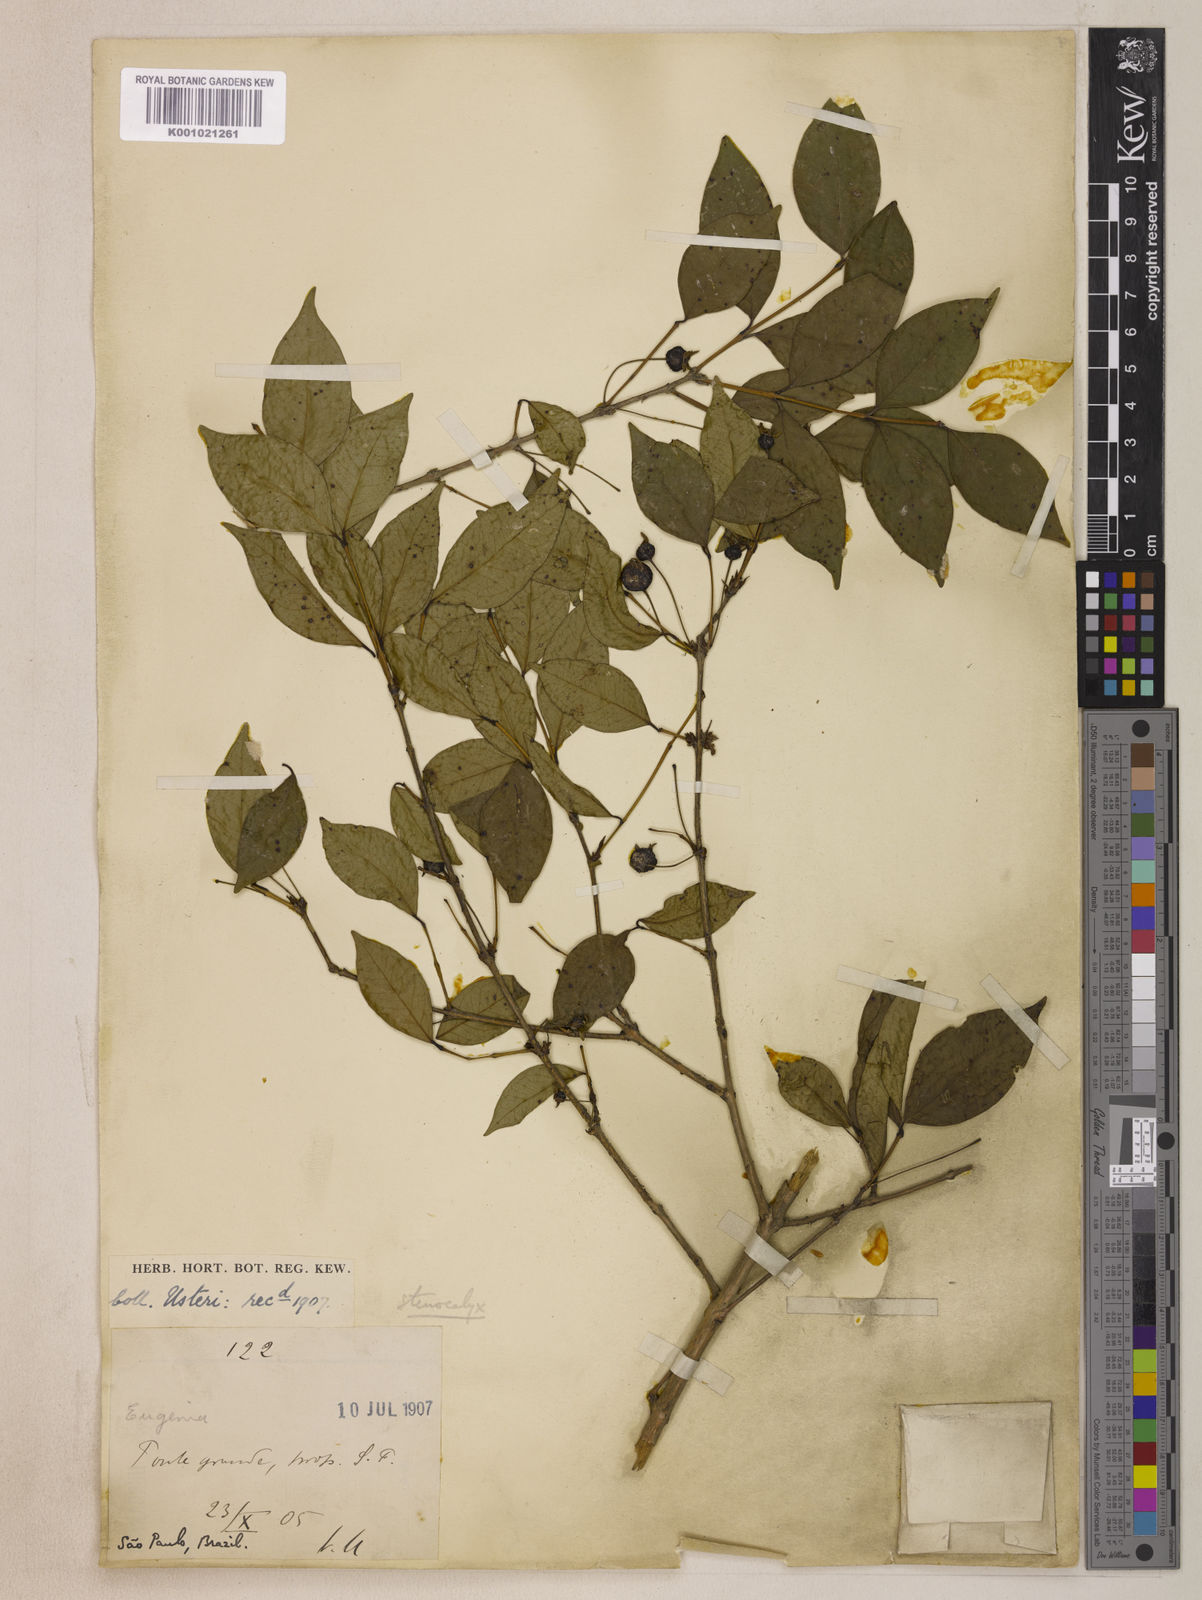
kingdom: Plantae
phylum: Tracheophyta
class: Magnoliopsida
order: Myrtales
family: Myrtaceae
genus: Eugenia
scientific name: Eugenia uniflora
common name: Surinam cherry
